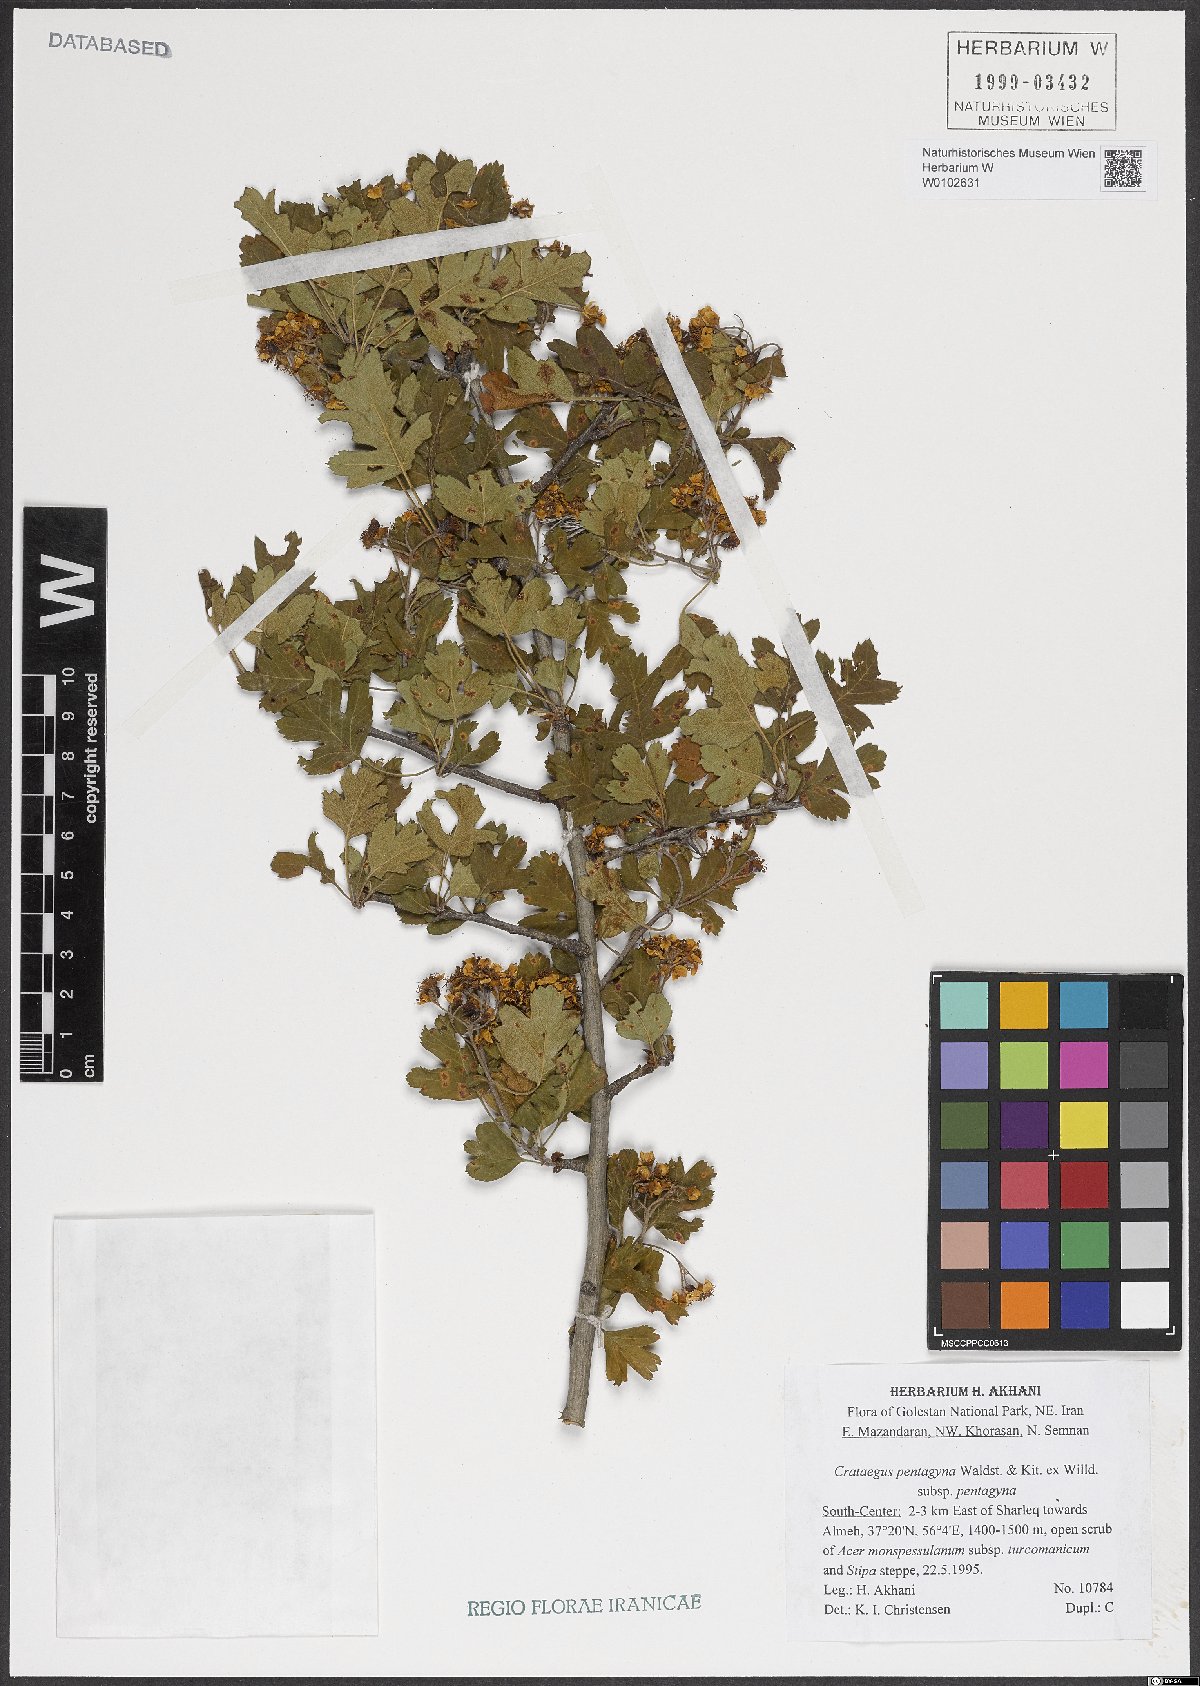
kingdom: Plantae
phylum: Tracheophyta
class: Magnoliopsida
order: Rosales
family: Rosaceae
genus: Crataegus
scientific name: Crataegus pentagyna
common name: Small-flowered black hawthorn
